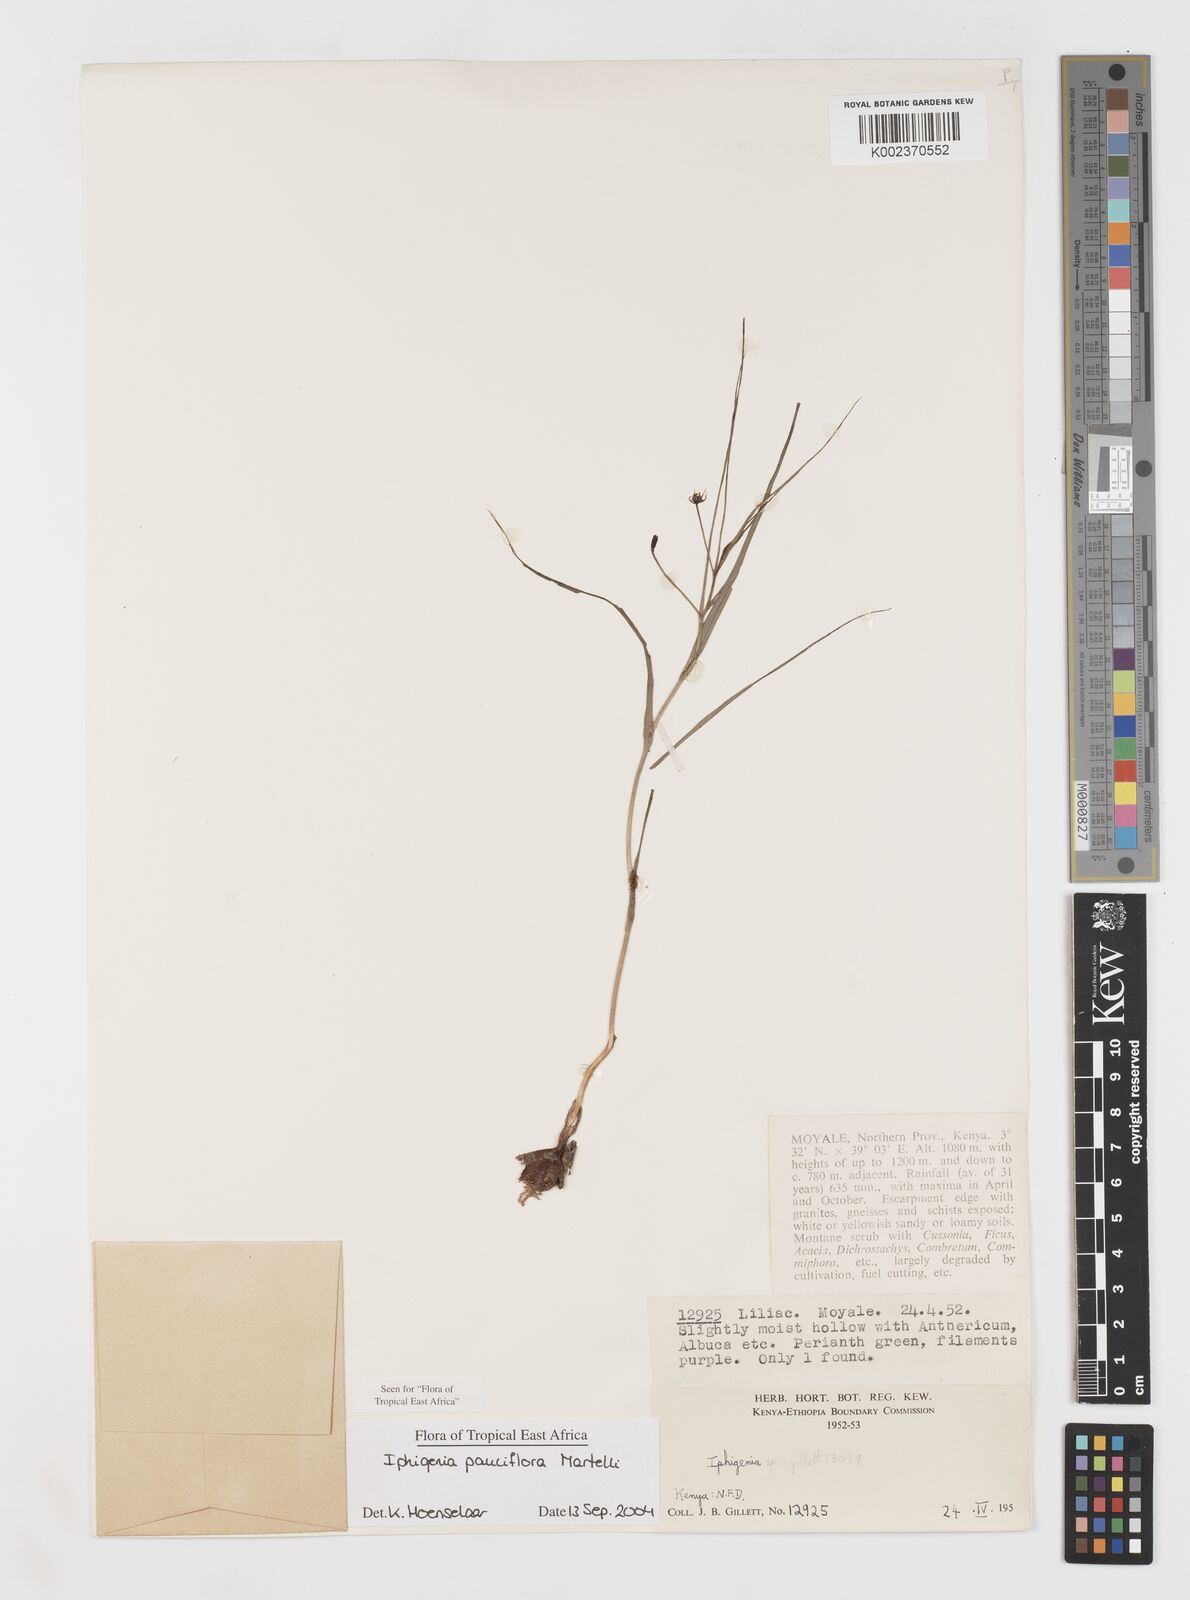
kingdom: Plantae
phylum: Tracheophyta
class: Liliopsida
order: Liliales
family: Colchicaceae
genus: Iphigenia
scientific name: Iphigenia pauciflora
